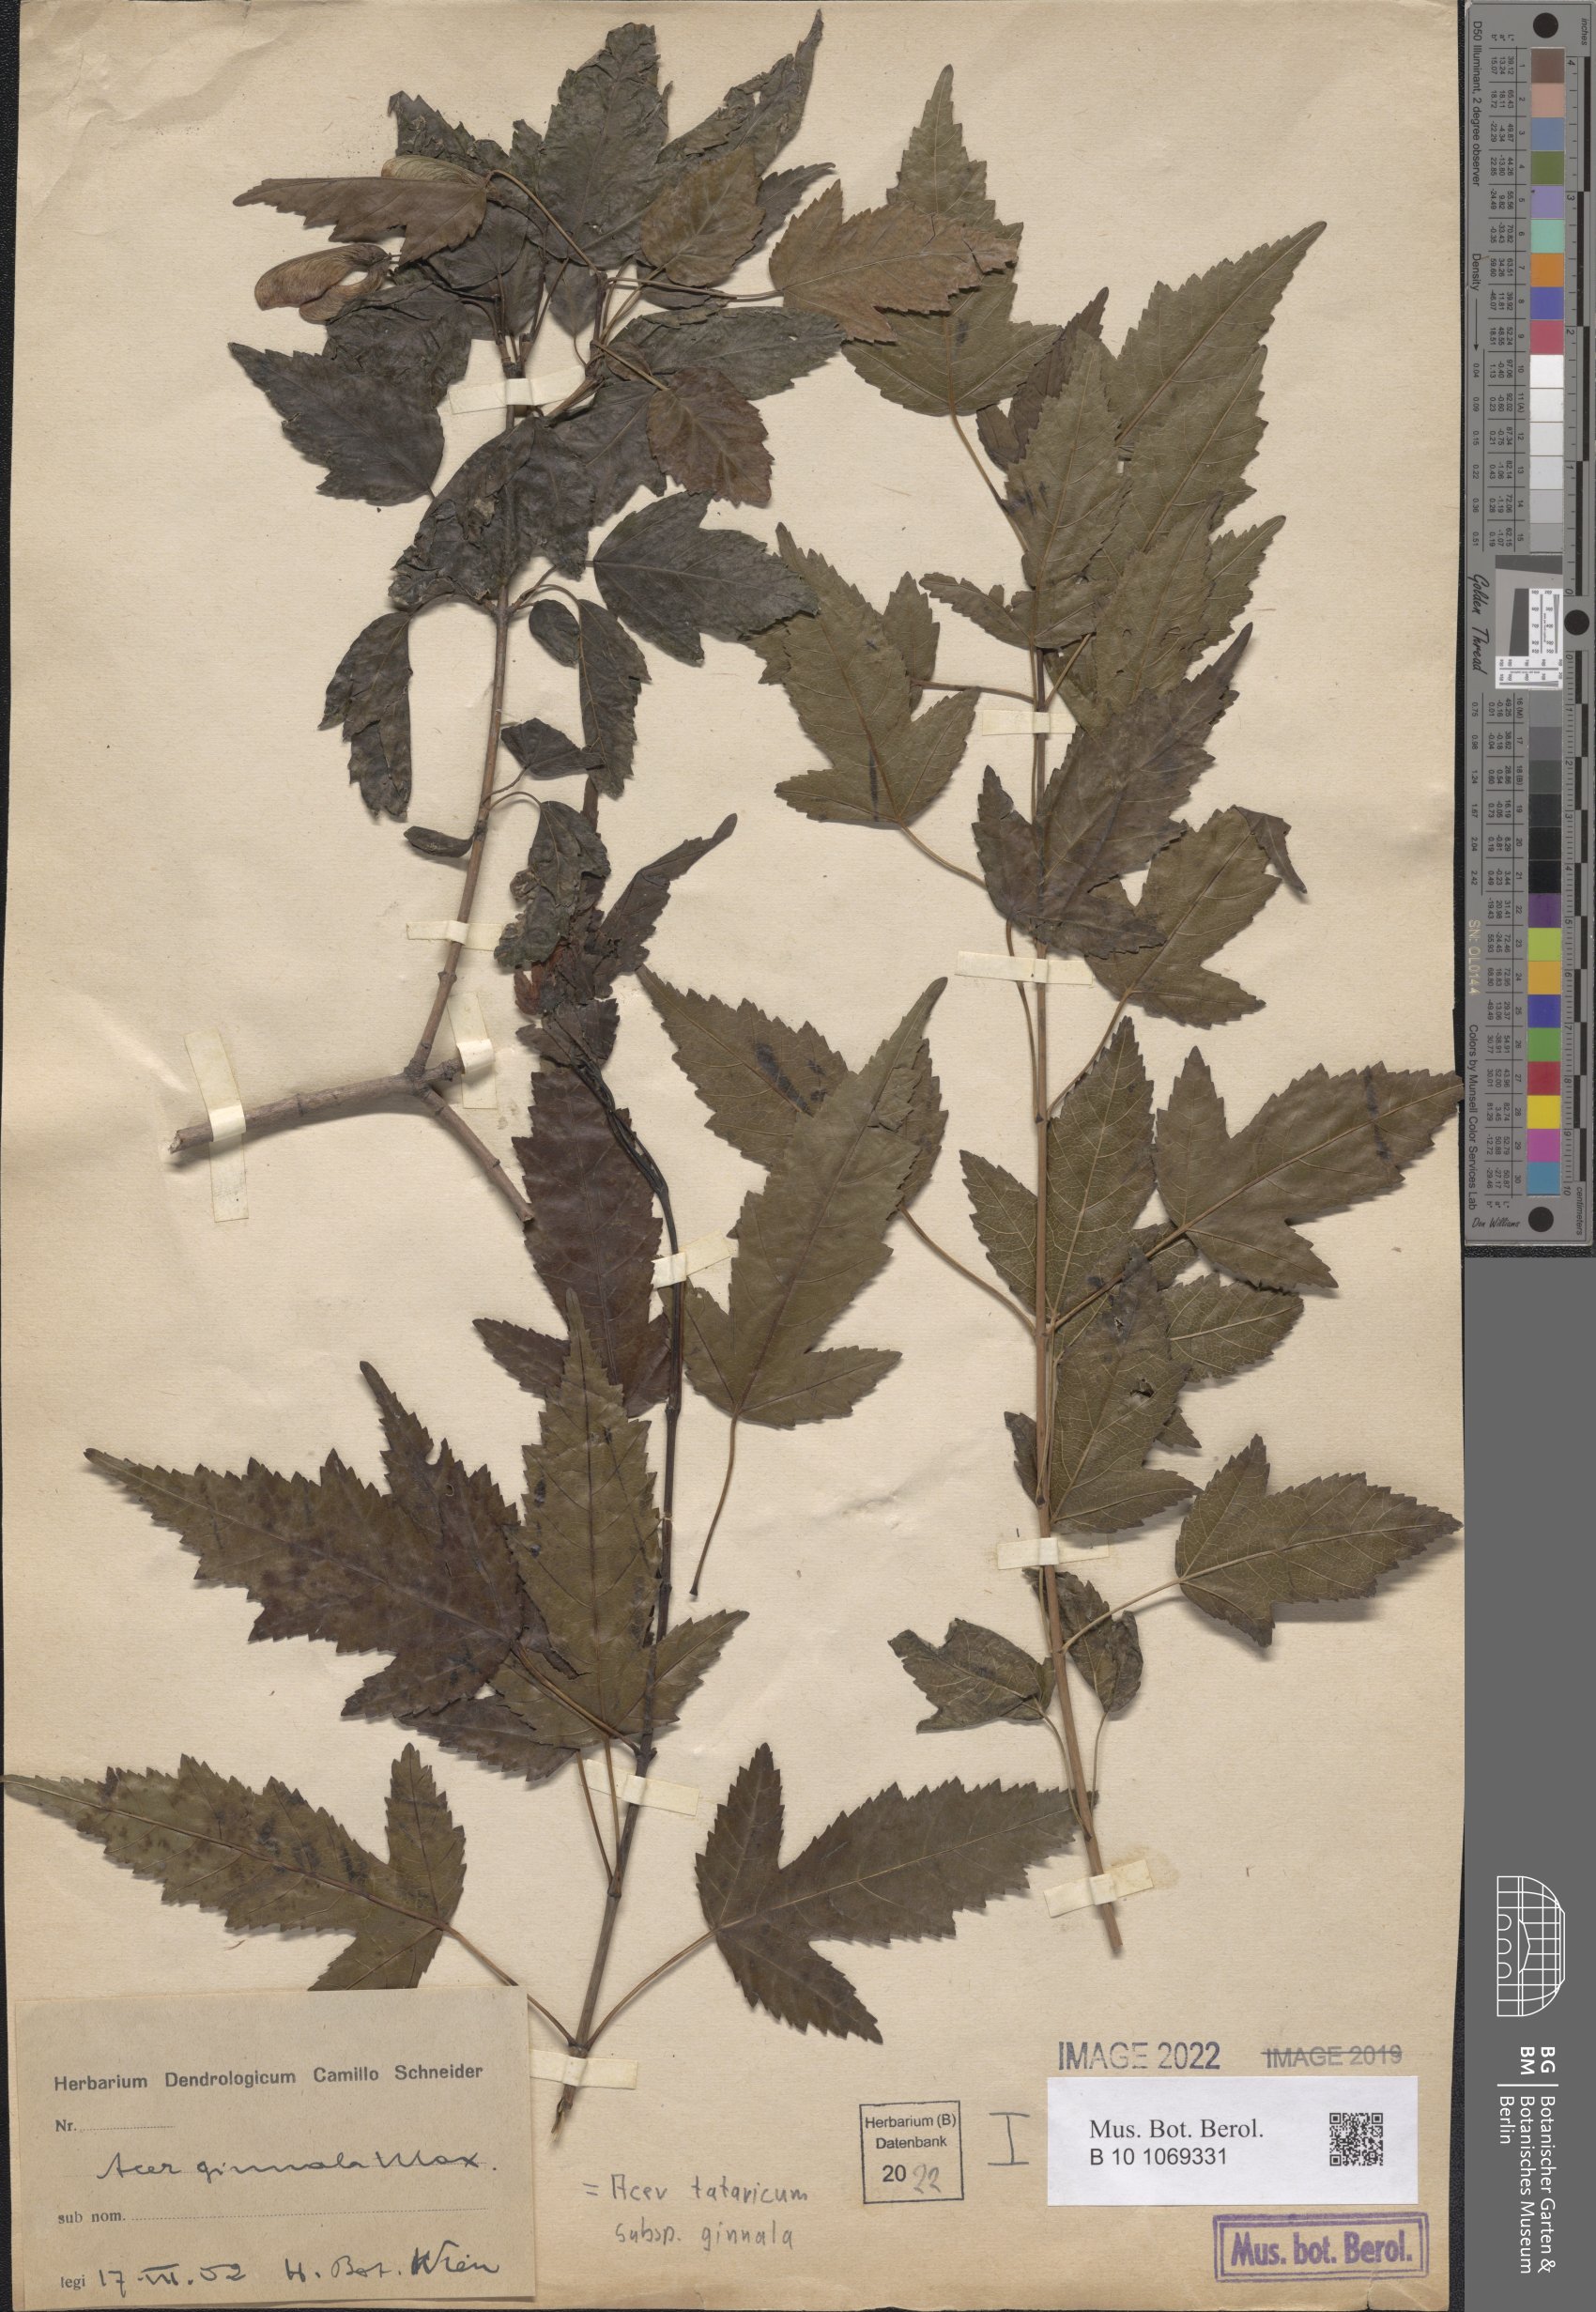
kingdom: Plantae
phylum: Tracheophyta
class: Magnoliopsida
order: Sapindales
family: Sapindaceae
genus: Acer
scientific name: Acer tataricum
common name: Tartar maple
